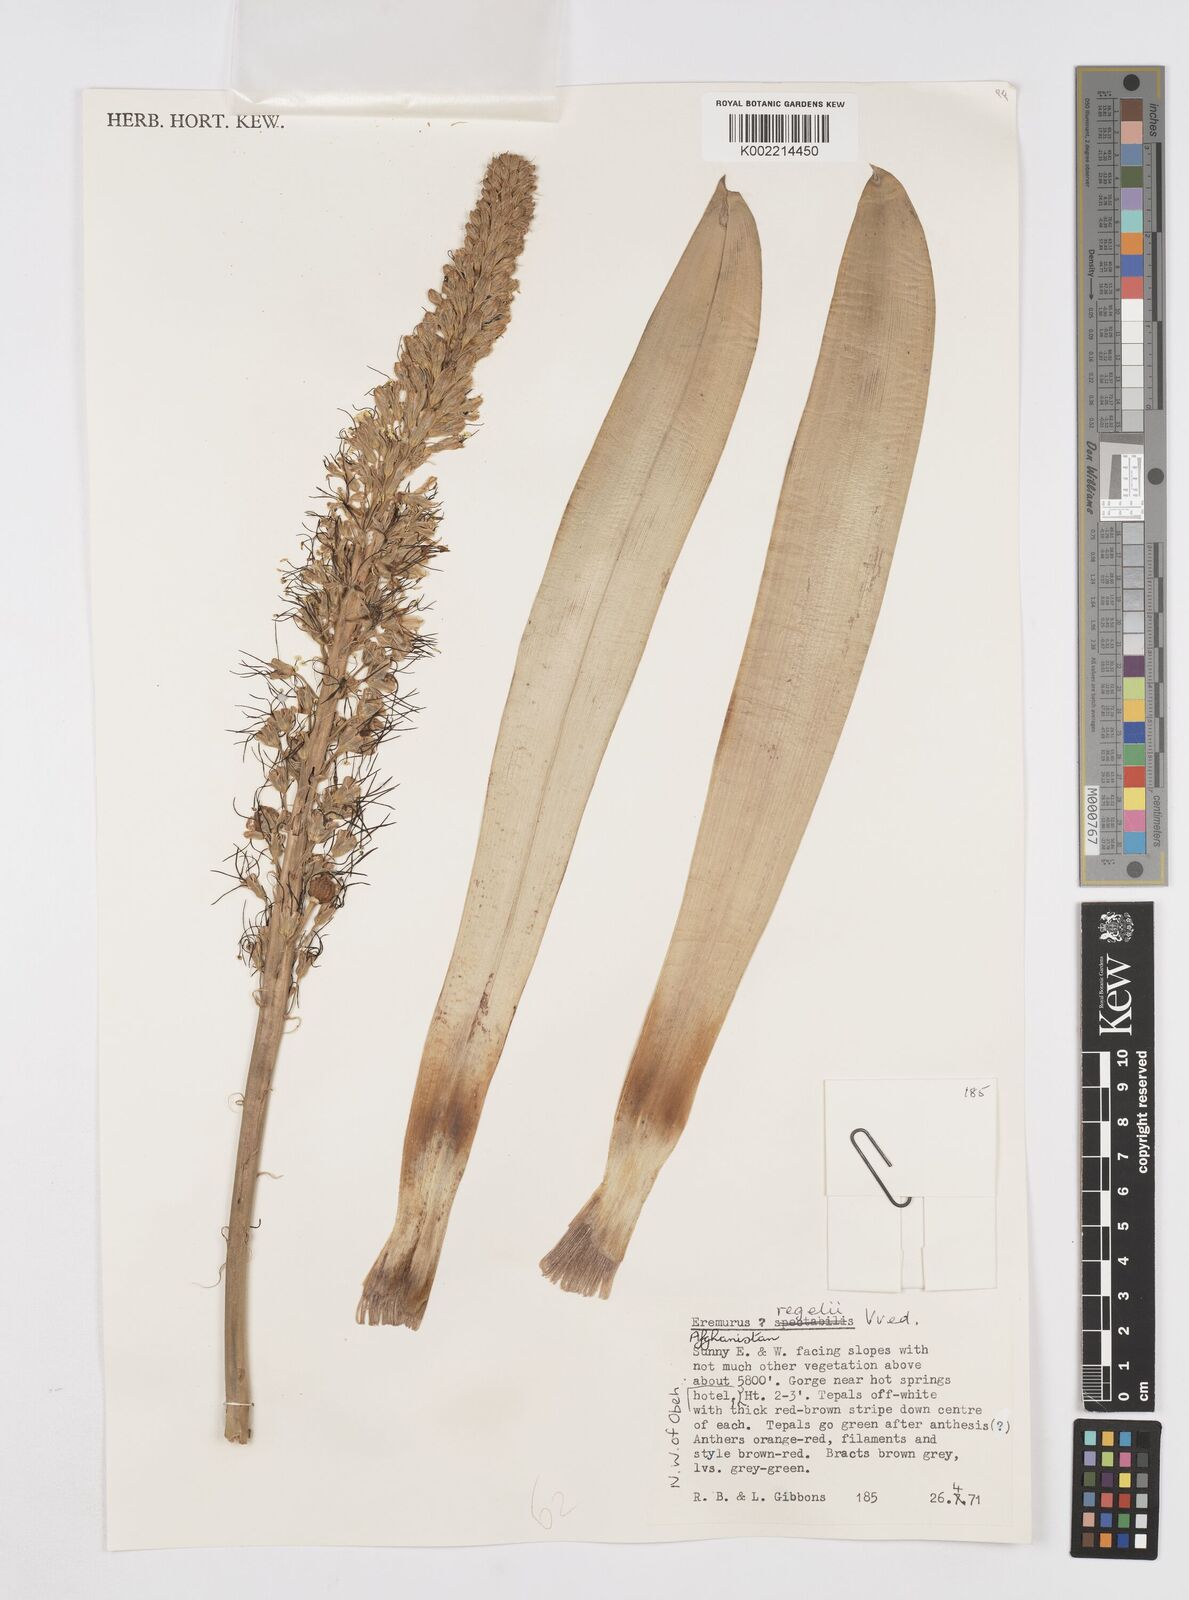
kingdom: Plantae
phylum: Tracheophyta
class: Liliopsida
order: Asparagales
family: Asphodelaceae
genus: Eremurus
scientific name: Eremurus regelii
